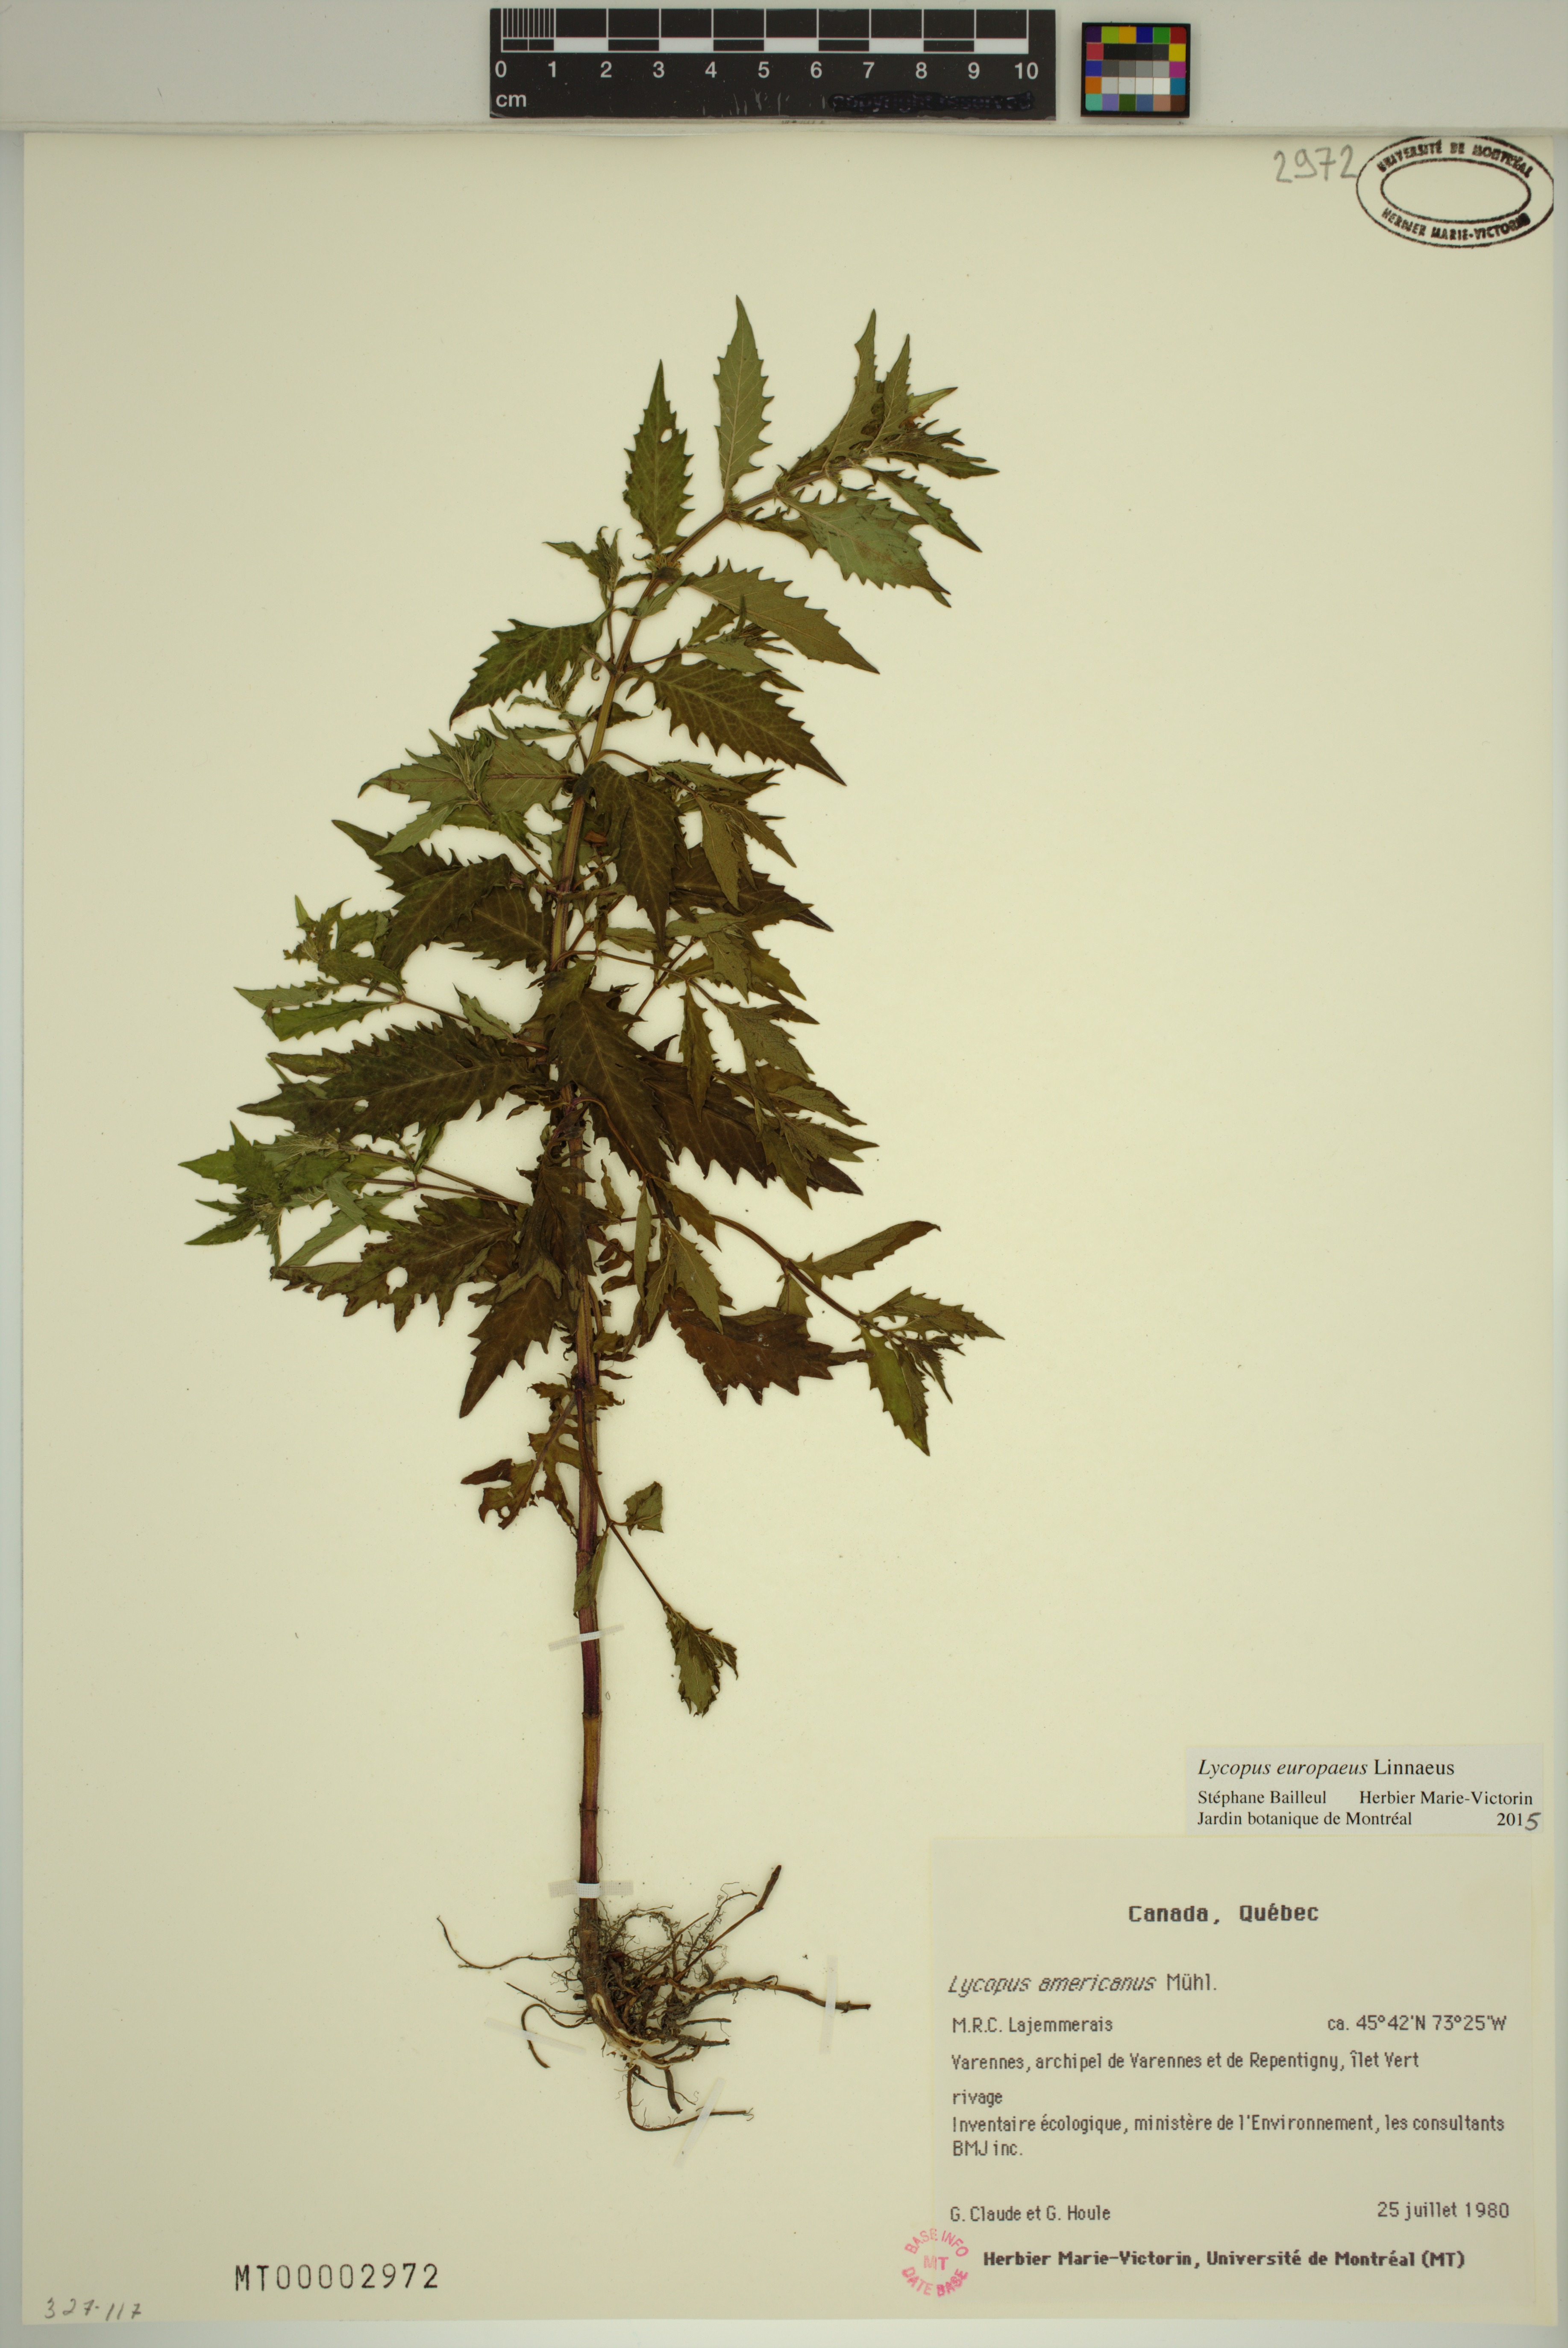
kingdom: Plantae
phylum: Tracheophyta
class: Magnoliopsida
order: Lamiales
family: Lamiaceae
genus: Lycopus
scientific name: Lycopus europaeus
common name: European bugleweed
